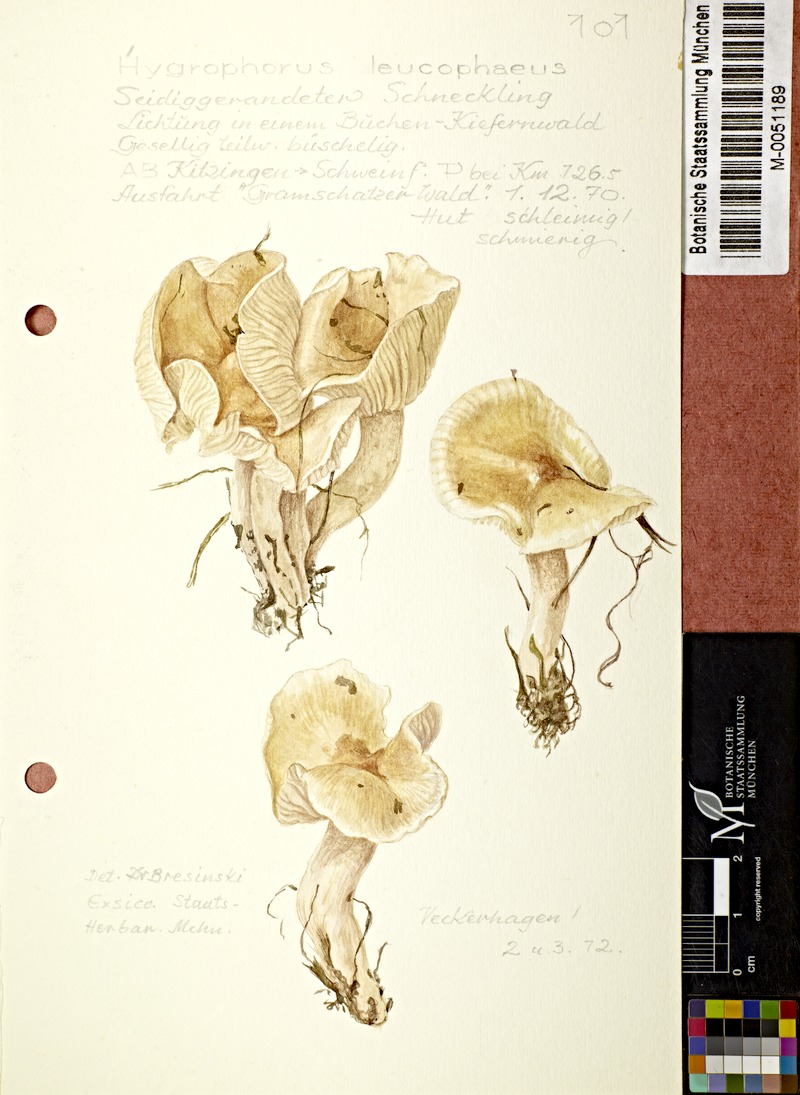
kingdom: Fungi
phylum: Basidiomycota
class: Agaricomycetes
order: Agaricales
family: Hygrophoraceae
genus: Hygrophorus
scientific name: Hygrophorus leucophaeus
